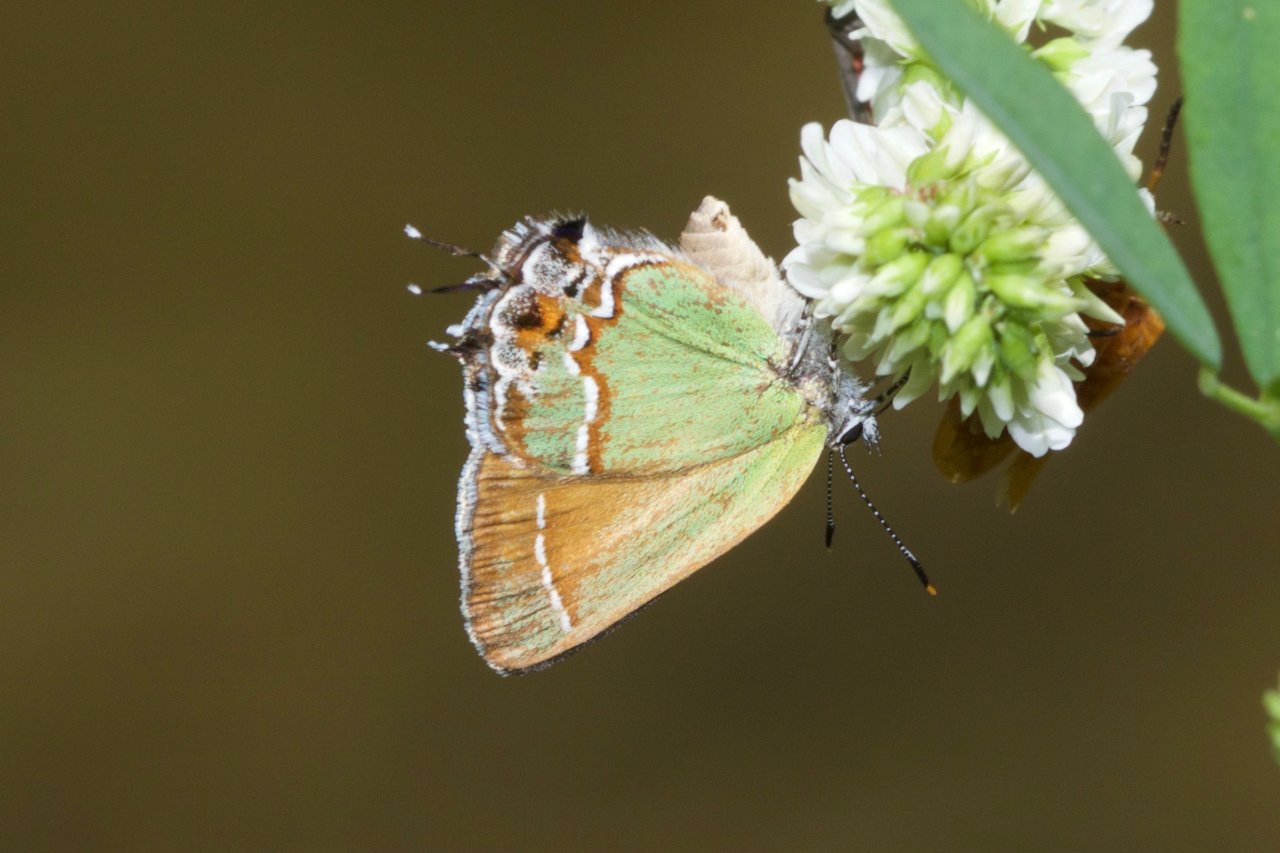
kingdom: Animalia
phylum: Arthropoda
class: Insecta
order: Lepidoptera
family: Lycaenidae
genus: Mitoura
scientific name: Mitoura gryneus
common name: Juniper Hairstreak
